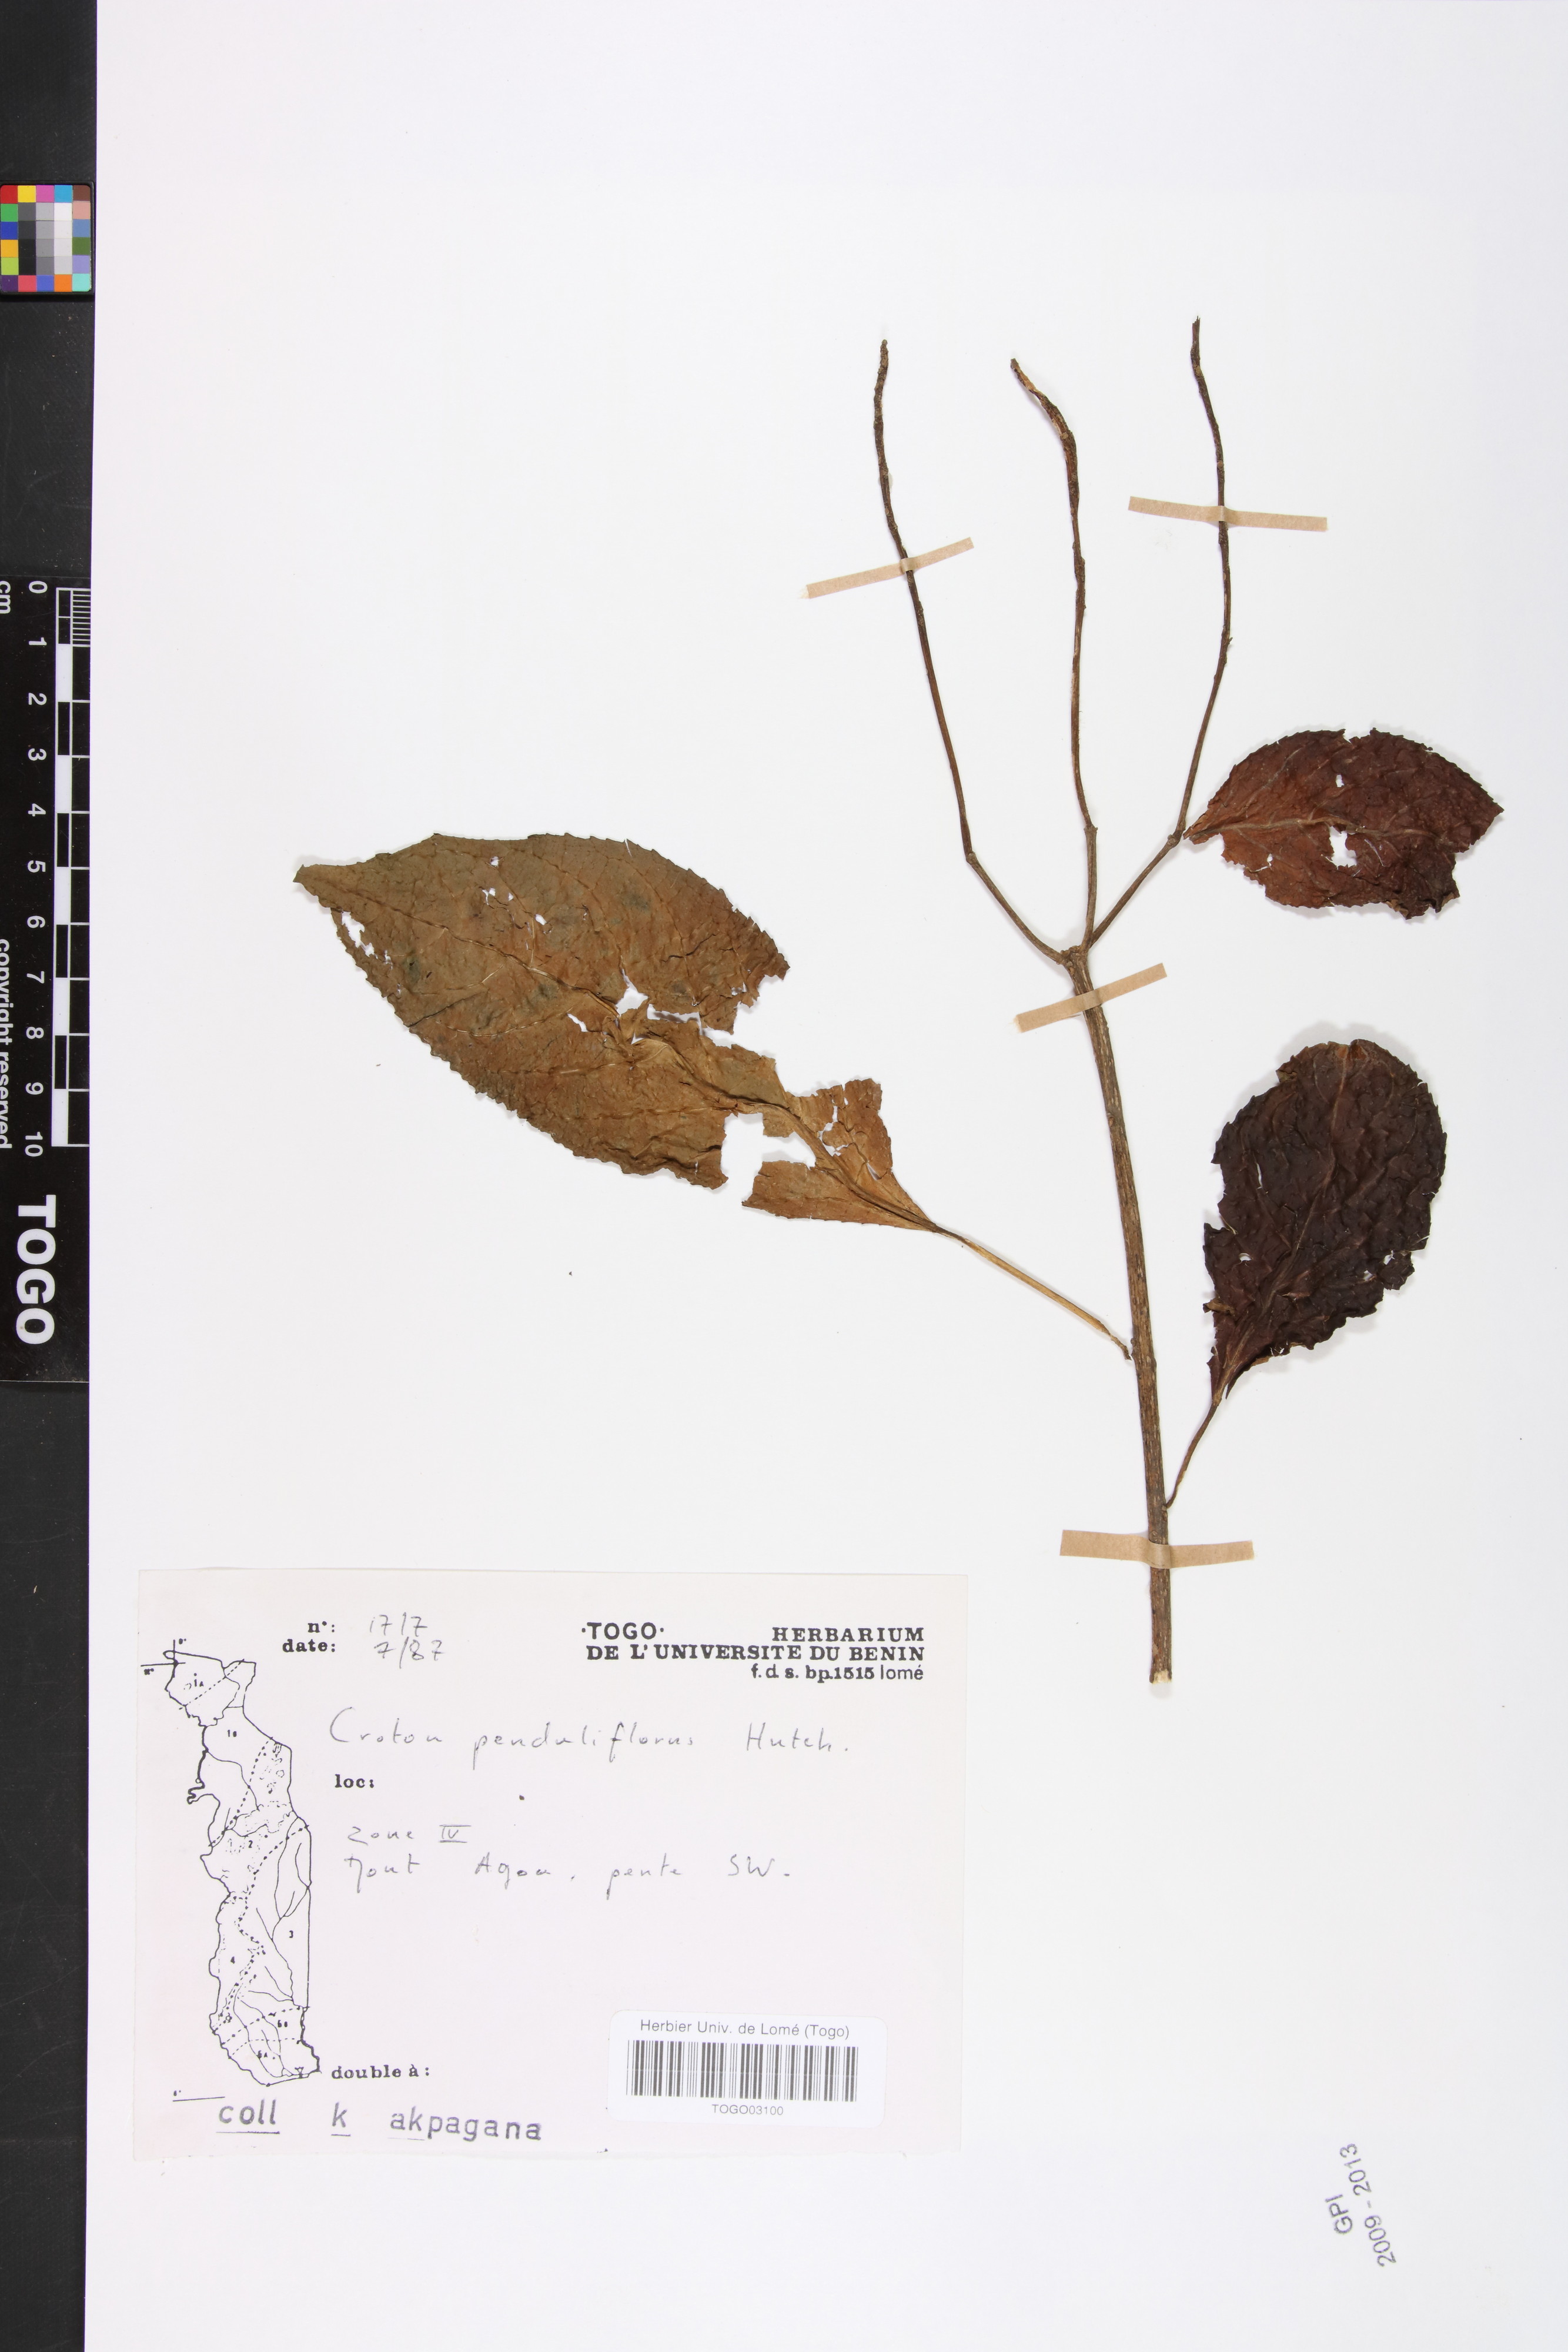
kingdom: Plantae
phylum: Tracheophyta
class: Magnoliopsida
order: Malpighiales
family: Euphorbiaceae
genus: Croton
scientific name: Croton penduliflorus
